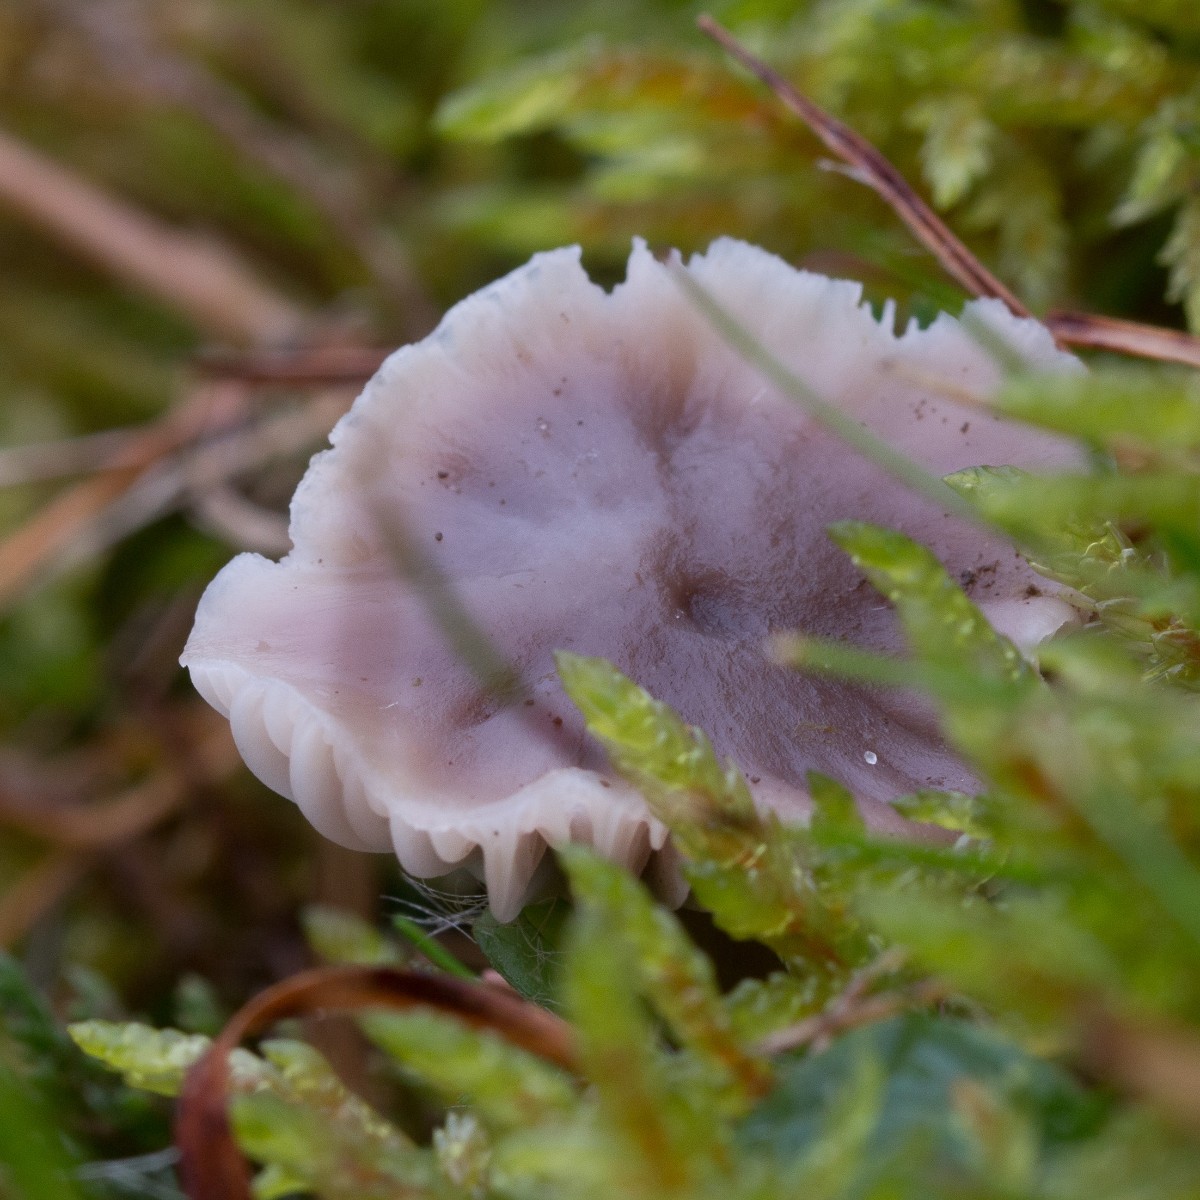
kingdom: Fungi
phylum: Basidiomycota
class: Agaricomycetes
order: Agaricales
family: Hygrophoraceae
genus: Cuphophyllus
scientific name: Cuphophyllus flavipes
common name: gulfodet vokshat
